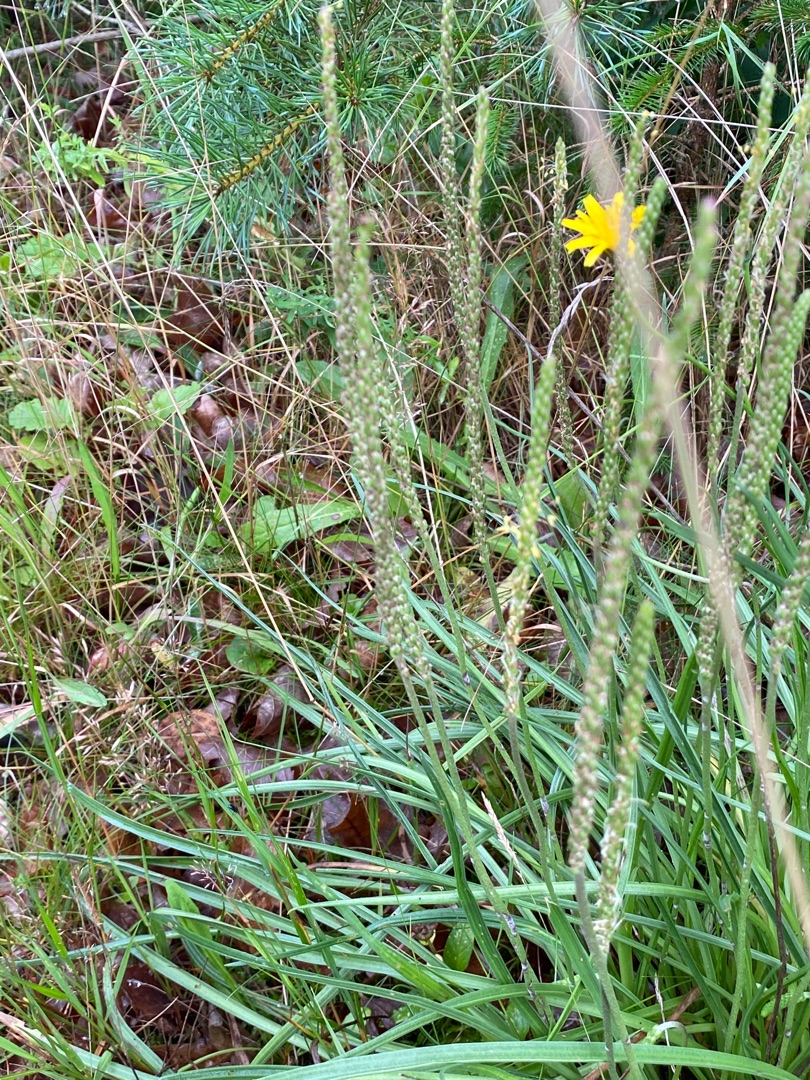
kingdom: Plantae
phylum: Tracheophyta
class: Magnoliopsida
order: Lamiales
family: Plantaginaceae
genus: Plantago
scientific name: Plantago maritima
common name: Strand-vejbred
